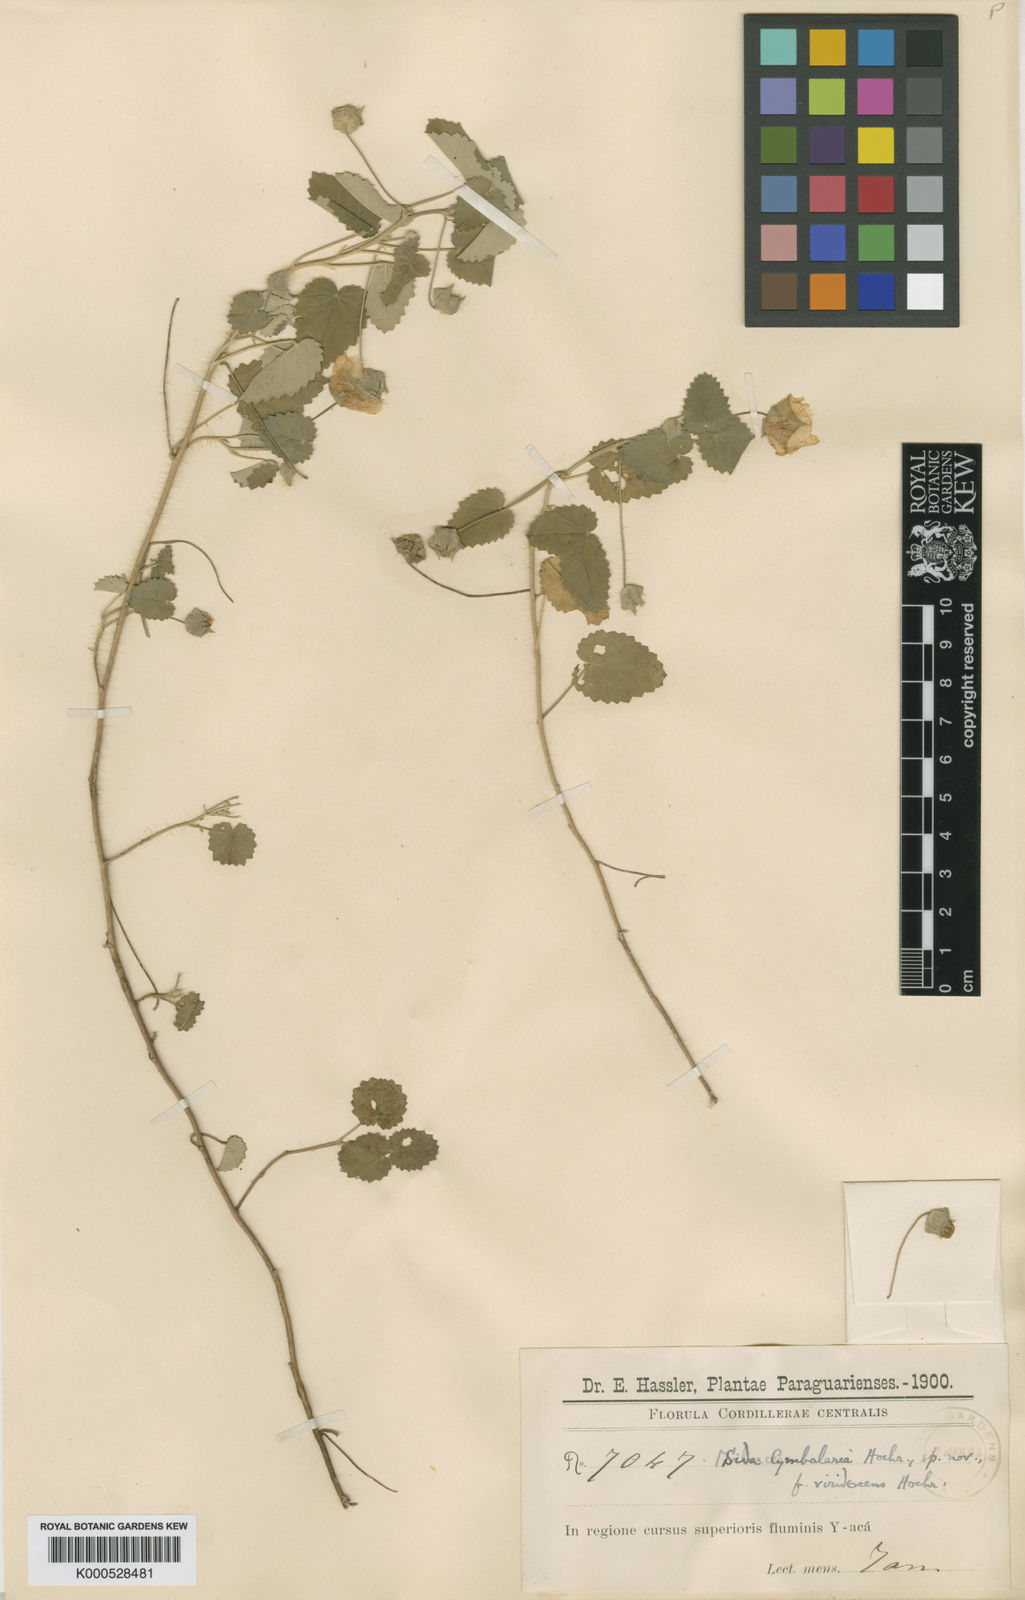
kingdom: Plantae
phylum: Tracheophyta
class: Magnoliopsida
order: Malvales
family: Malvaceae
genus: Sida
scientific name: Sida
